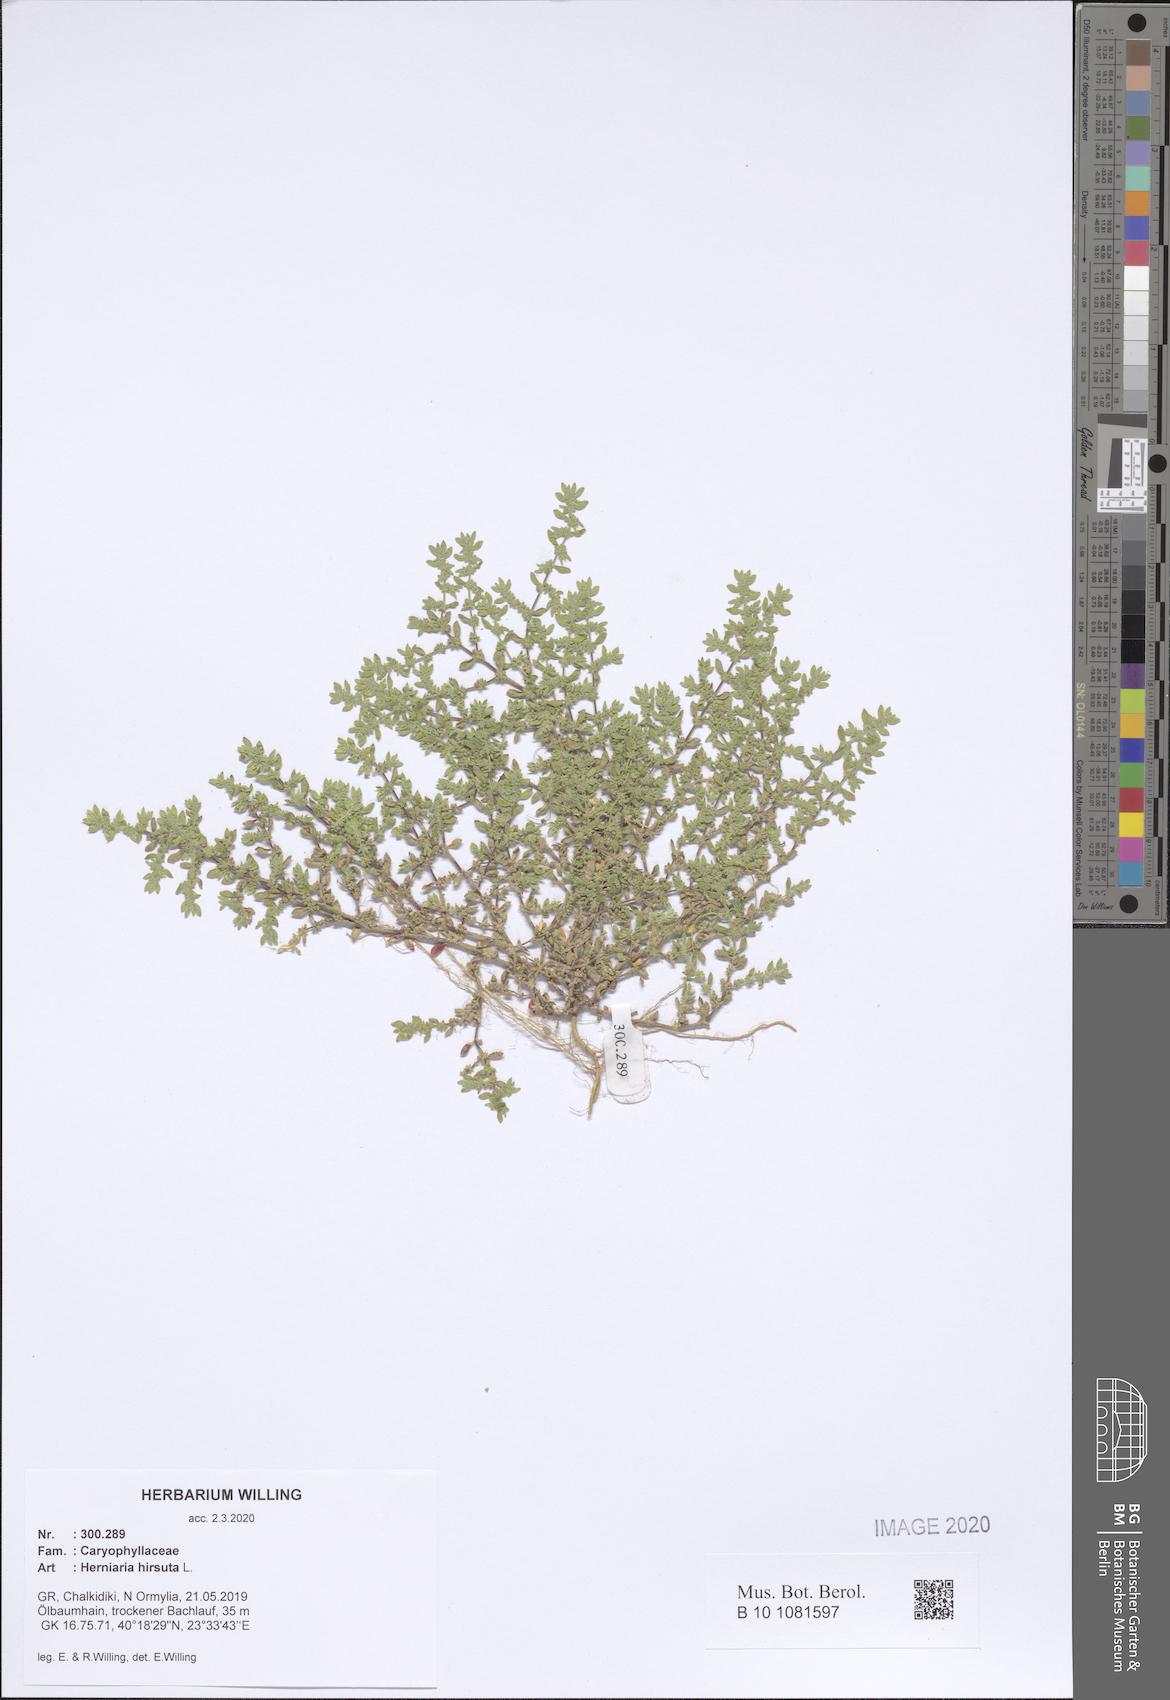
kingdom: Plantae
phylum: Tracheophyta
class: Magnoliopsida
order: Caryophyllales
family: Caryophyllaceae
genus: Herniaria
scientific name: Herniaria hirsuta
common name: Hairy rupturewort
